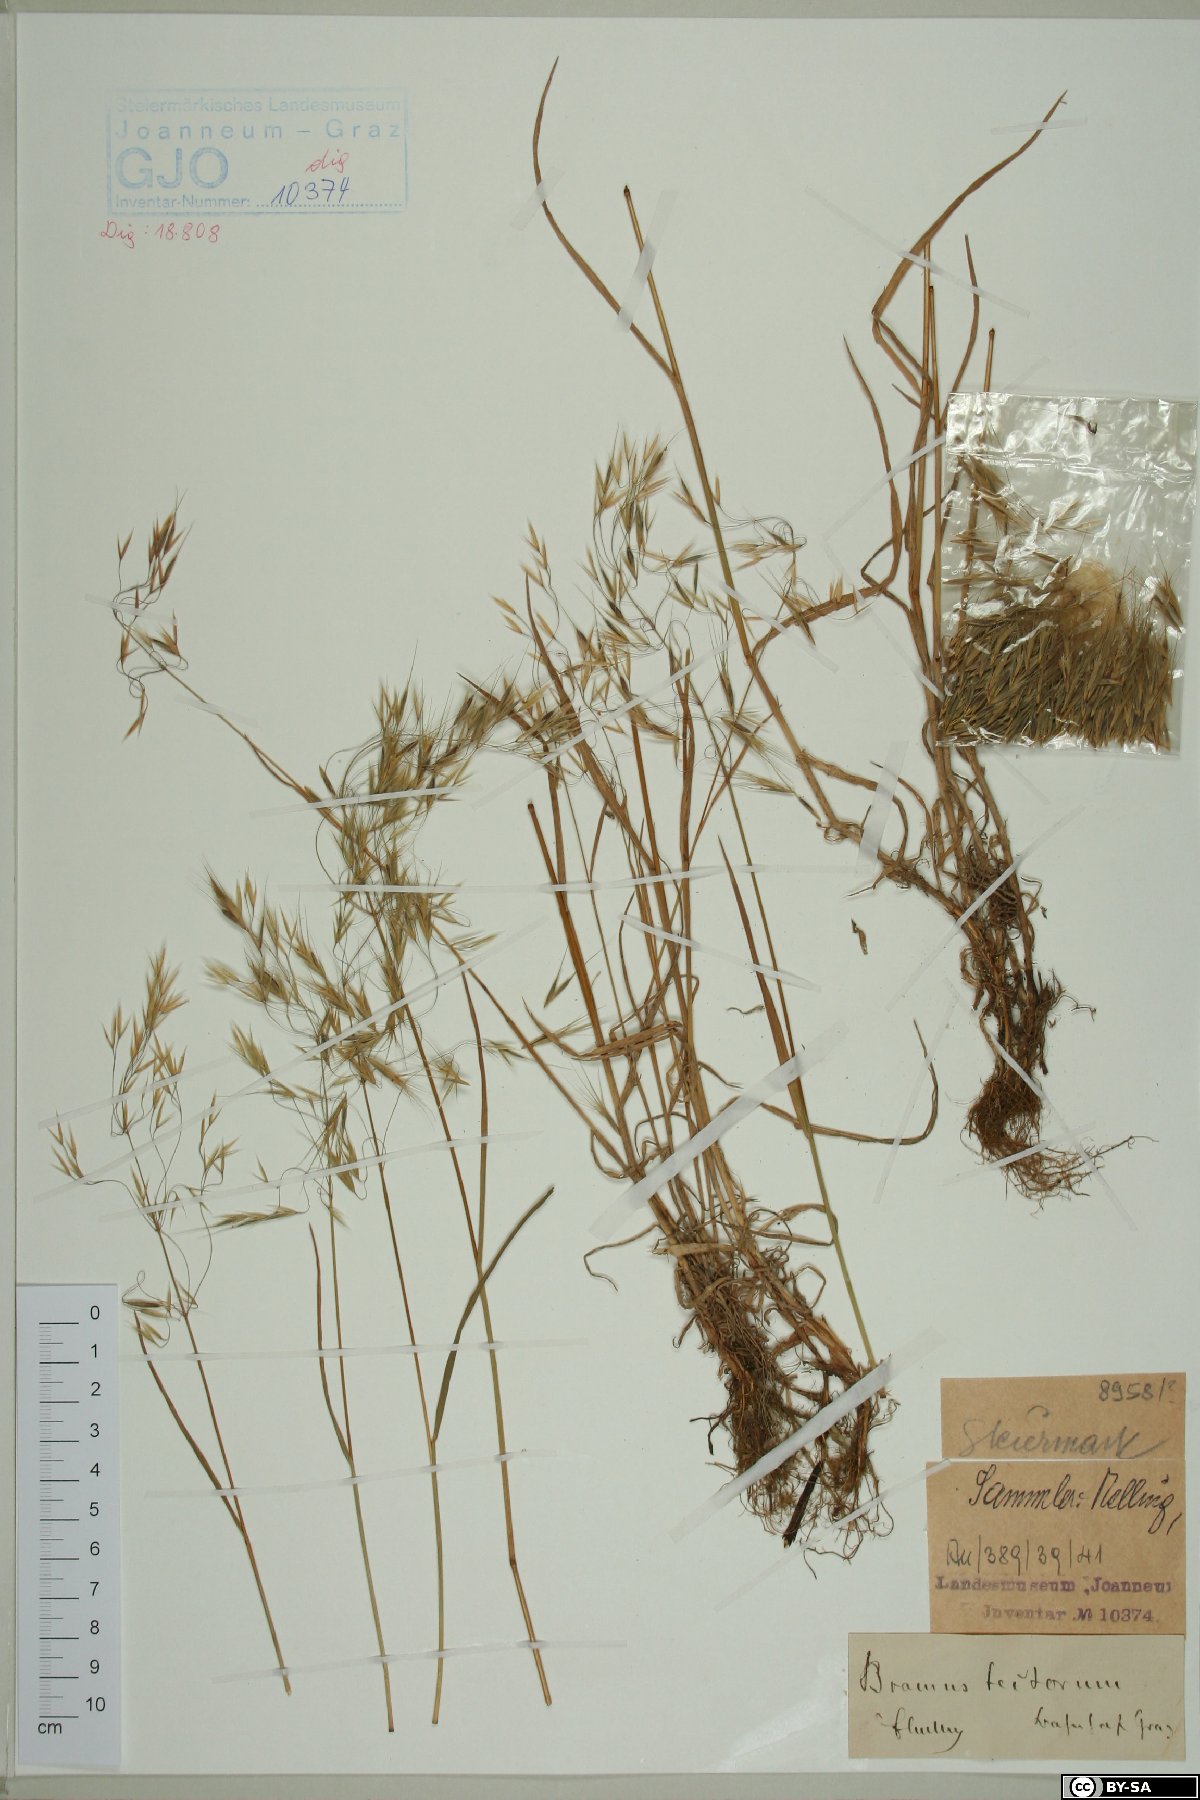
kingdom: Plantae
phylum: Tracheophyta
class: Liliopsida
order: Poales
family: Poaceae
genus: Bromus
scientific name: Bromus tectorum
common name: Cheatgrass
